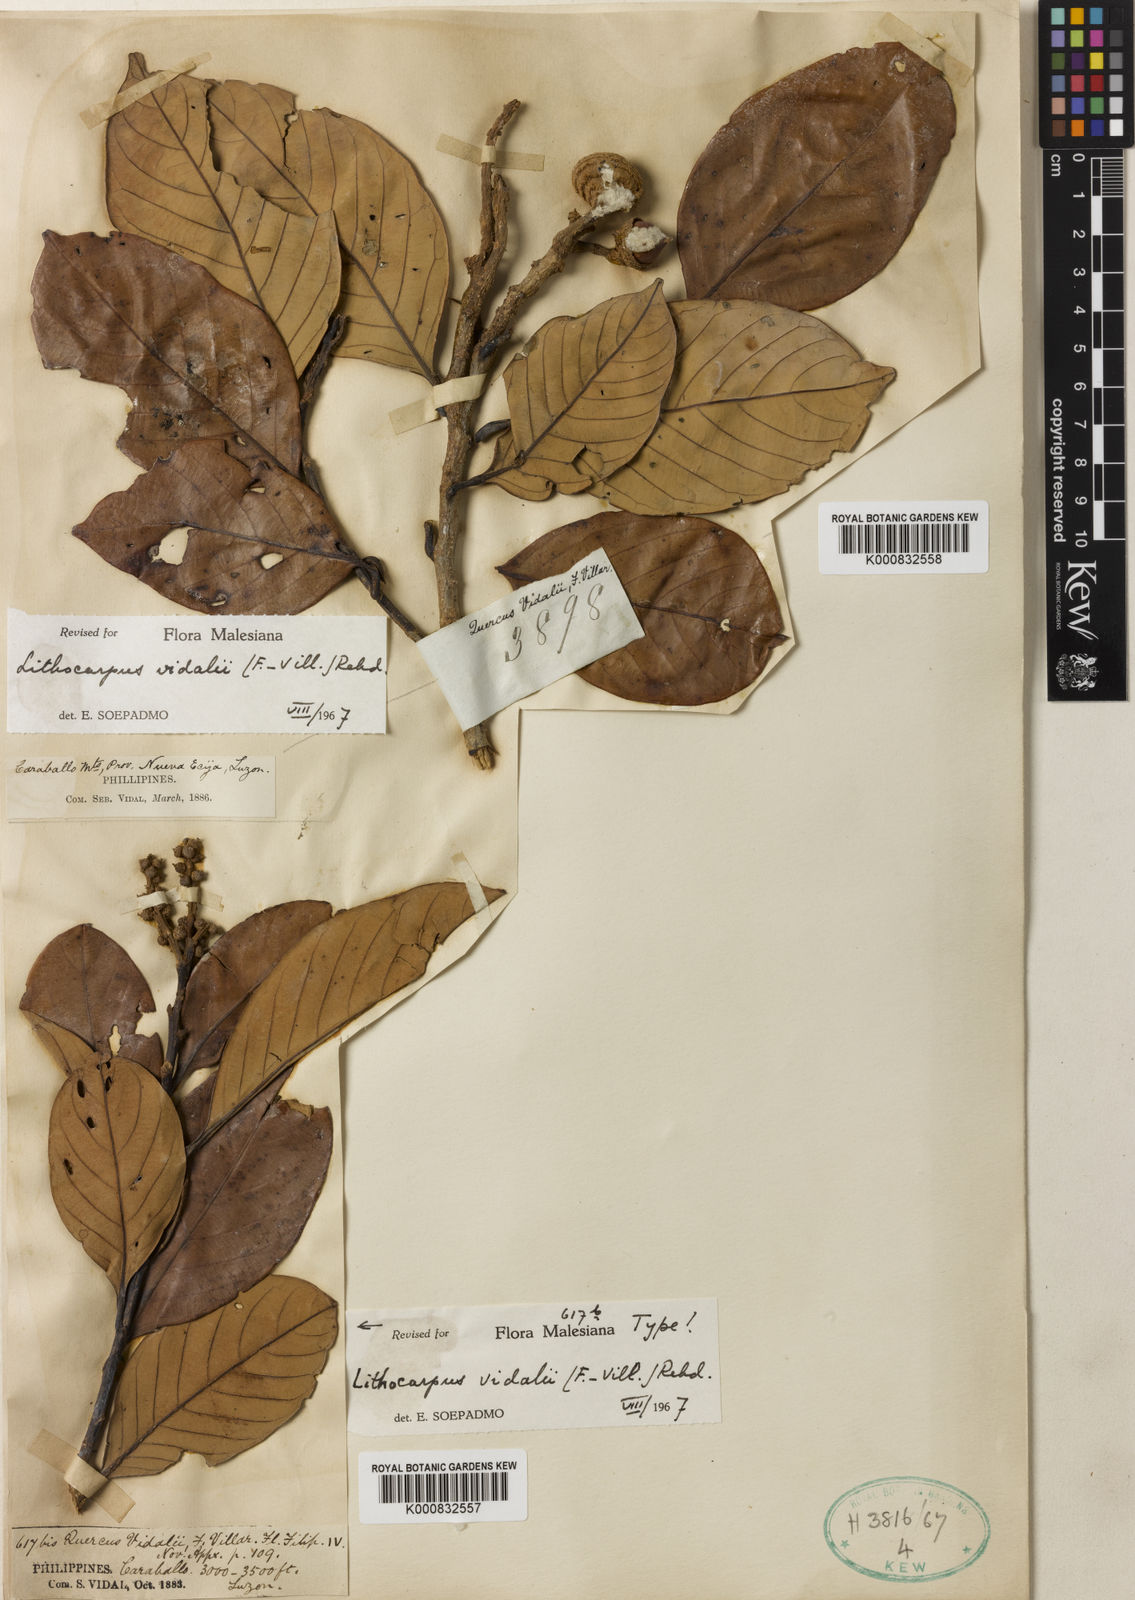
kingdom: Plantae
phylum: Tracheophyta
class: Magnoliopsida
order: Fagales
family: Fagaceae
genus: Lithocarpus
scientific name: Lithocarpus vidalii
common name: Vidal oak
